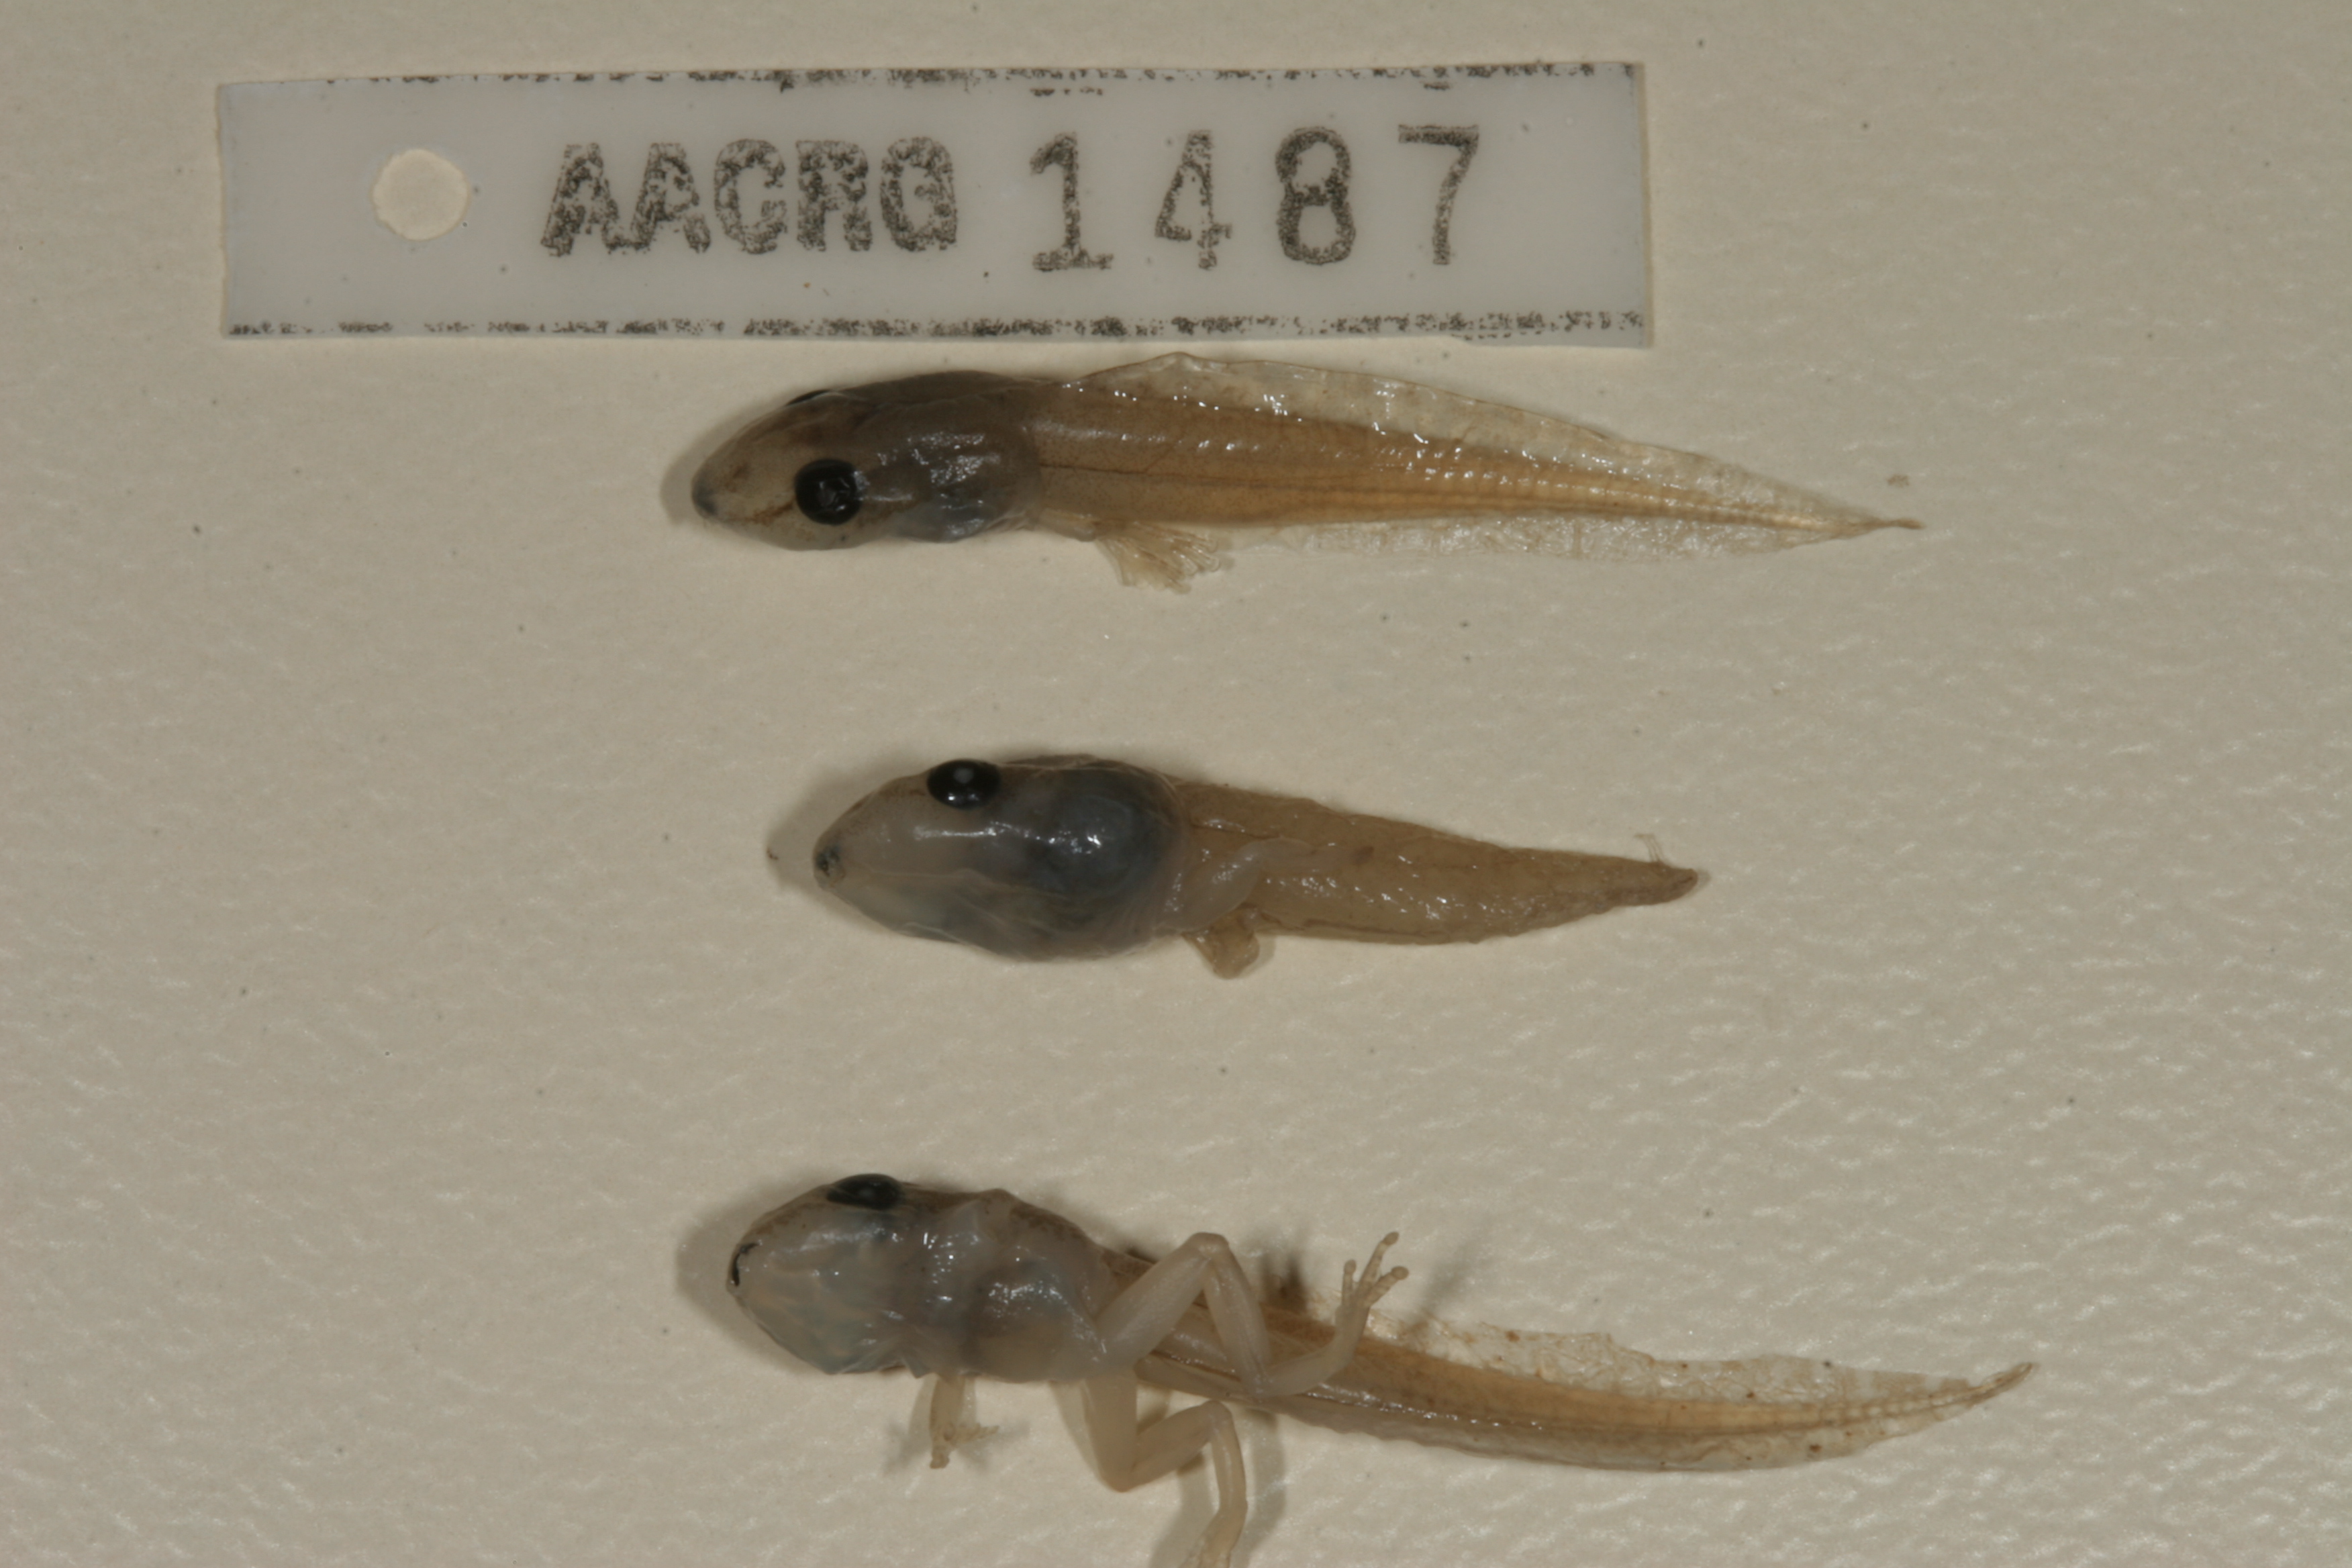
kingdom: Animalia
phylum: Chordata
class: Amphibia
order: Anura
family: Hyperoliidae
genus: Afrixalus
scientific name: Afrixalus aureus
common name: Golden banana frog
